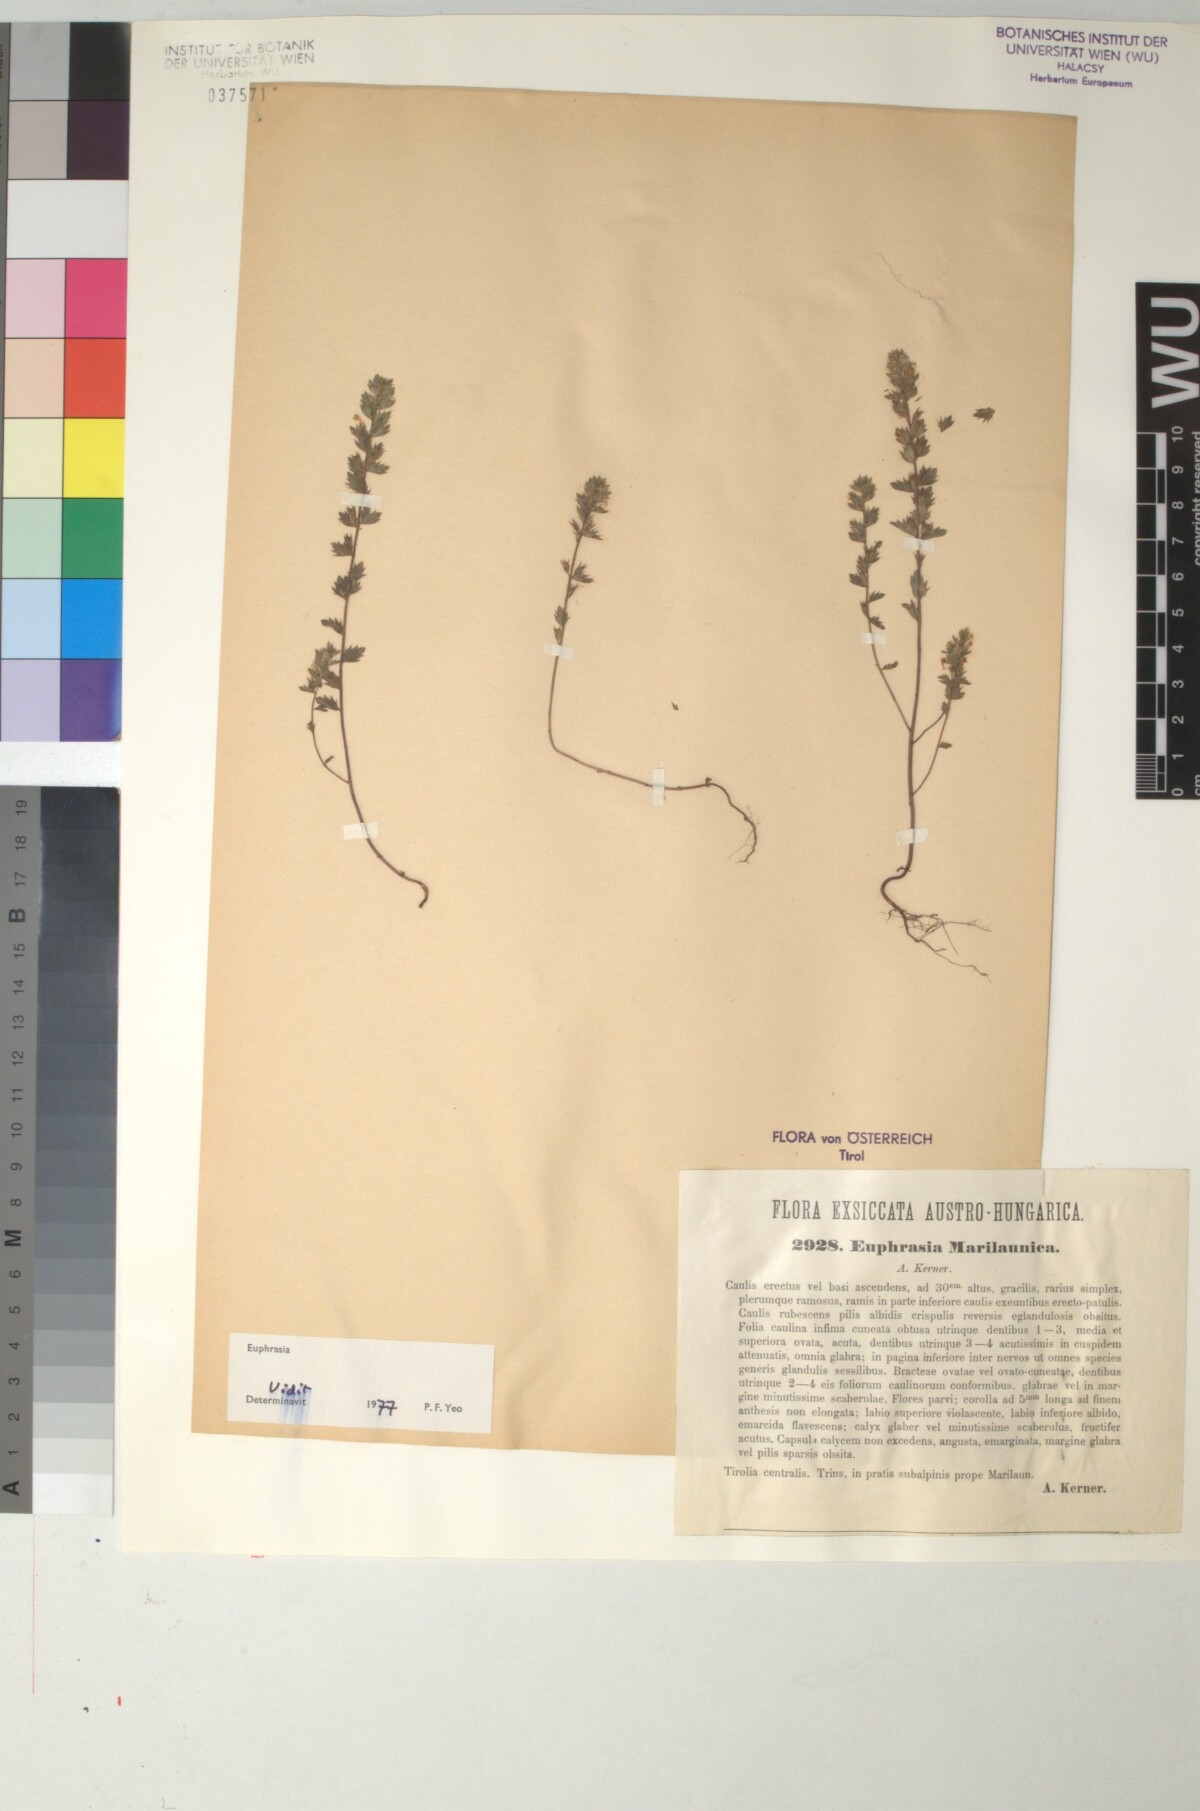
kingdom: Plantae
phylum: Tracheophyta
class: Magnoliopsida
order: Lamiales
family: Scrophulariaceae
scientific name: Scrophulariaceae
